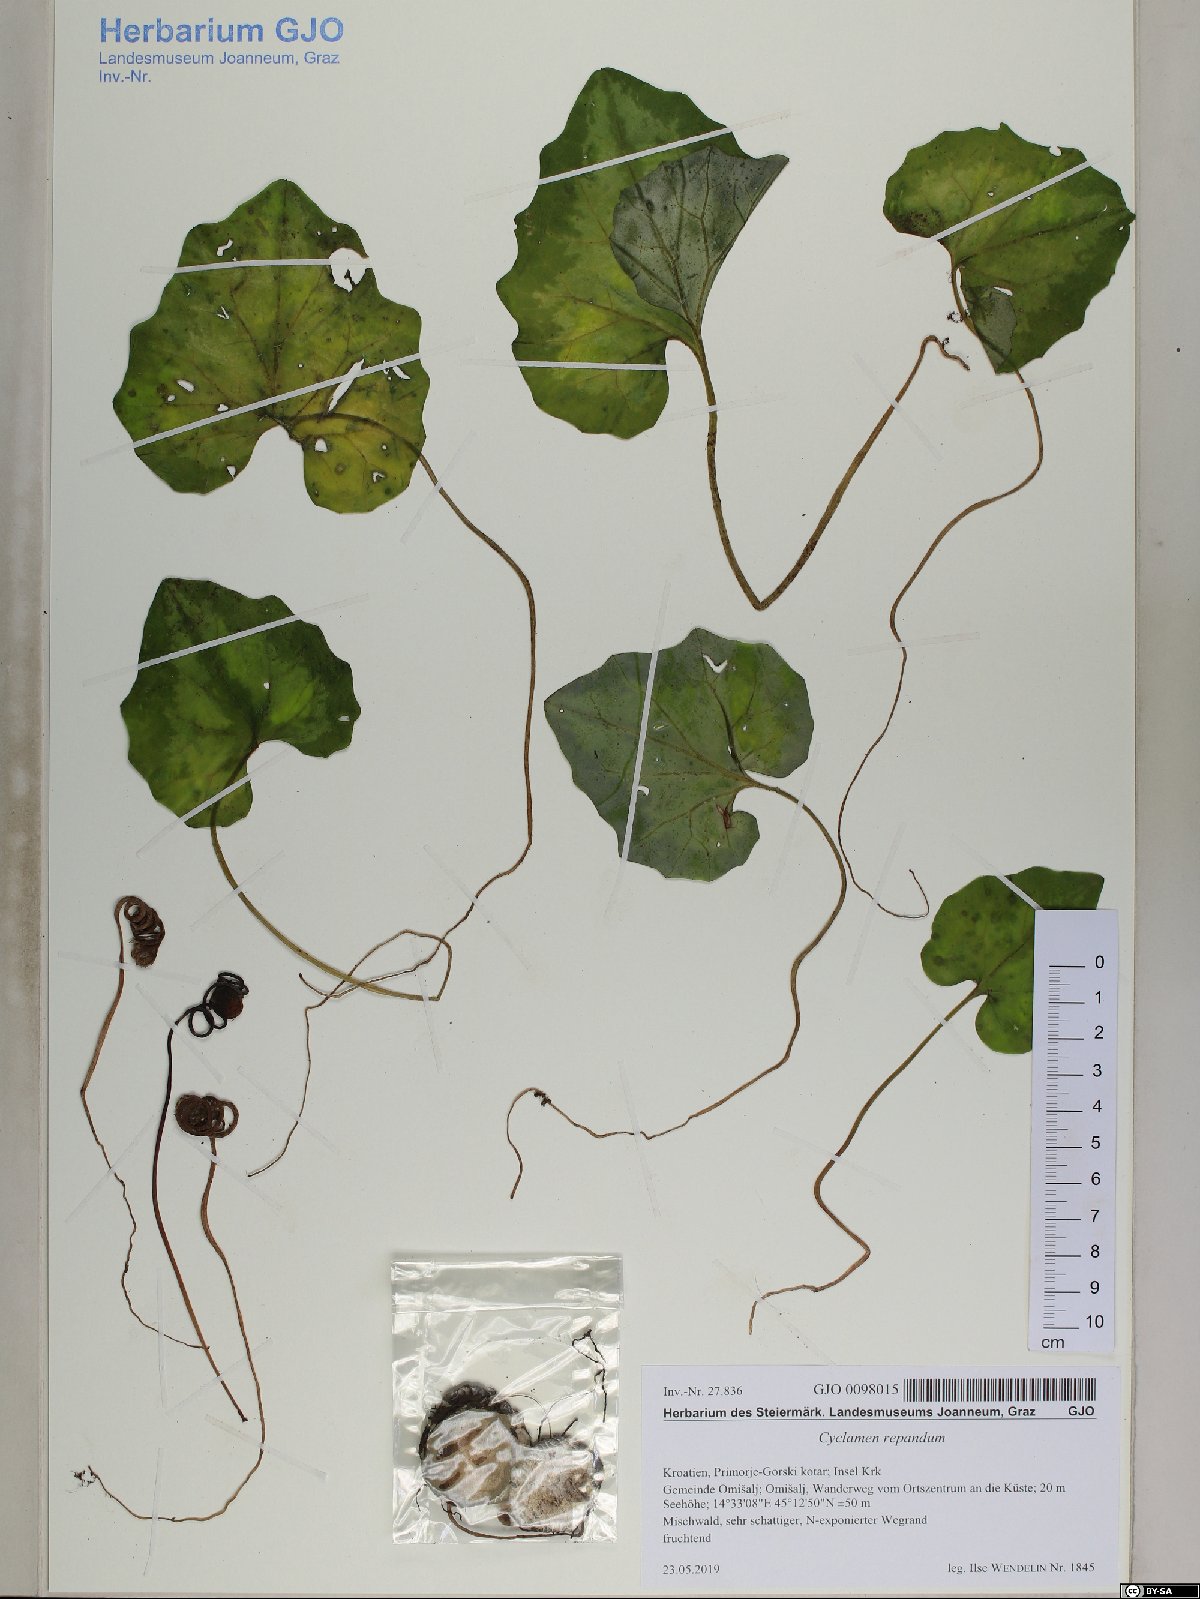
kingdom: Plantae
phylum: Tracheophyta
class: Magnoliopsida
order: Ericales
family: Primulaceae
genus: Cyclamen
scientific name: Cyclamen repandum
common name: Spring sowbread
